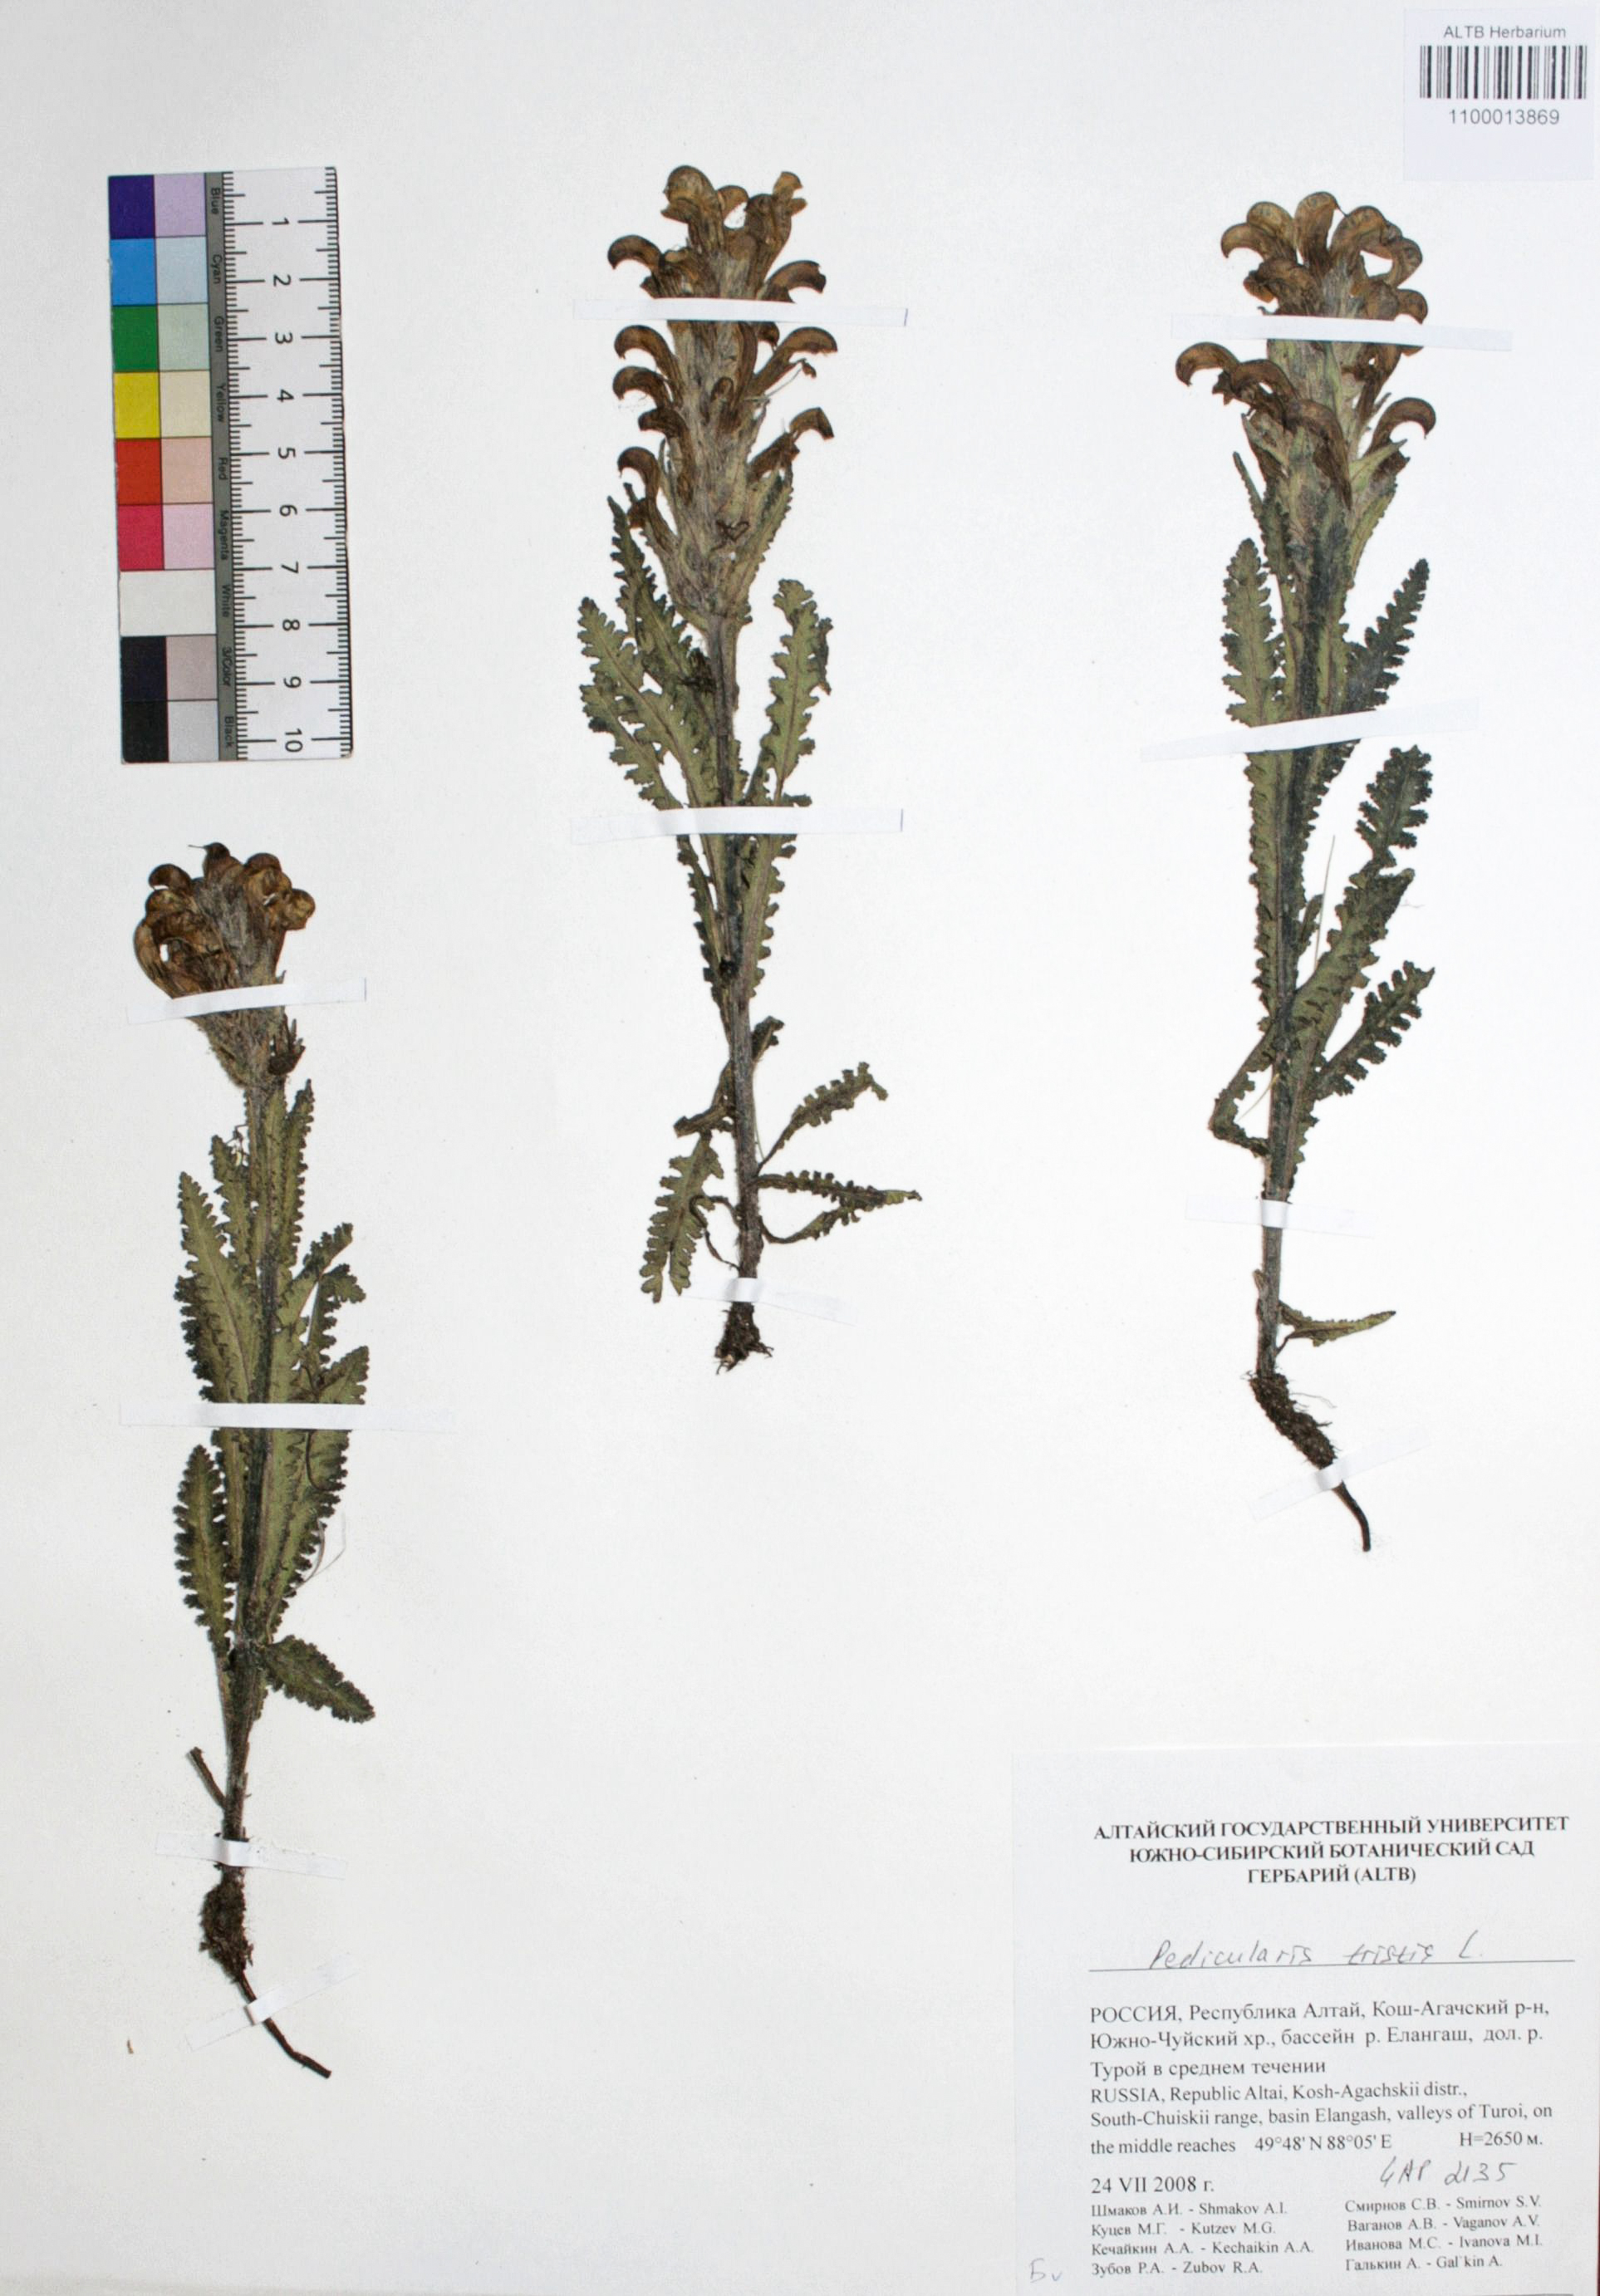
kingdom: Plantae
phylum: Tracheophyta
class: Magnoliopsida
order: Lamiales
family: Orobanchaceae
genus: Pedicularis
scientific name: Pedicularis tristis
